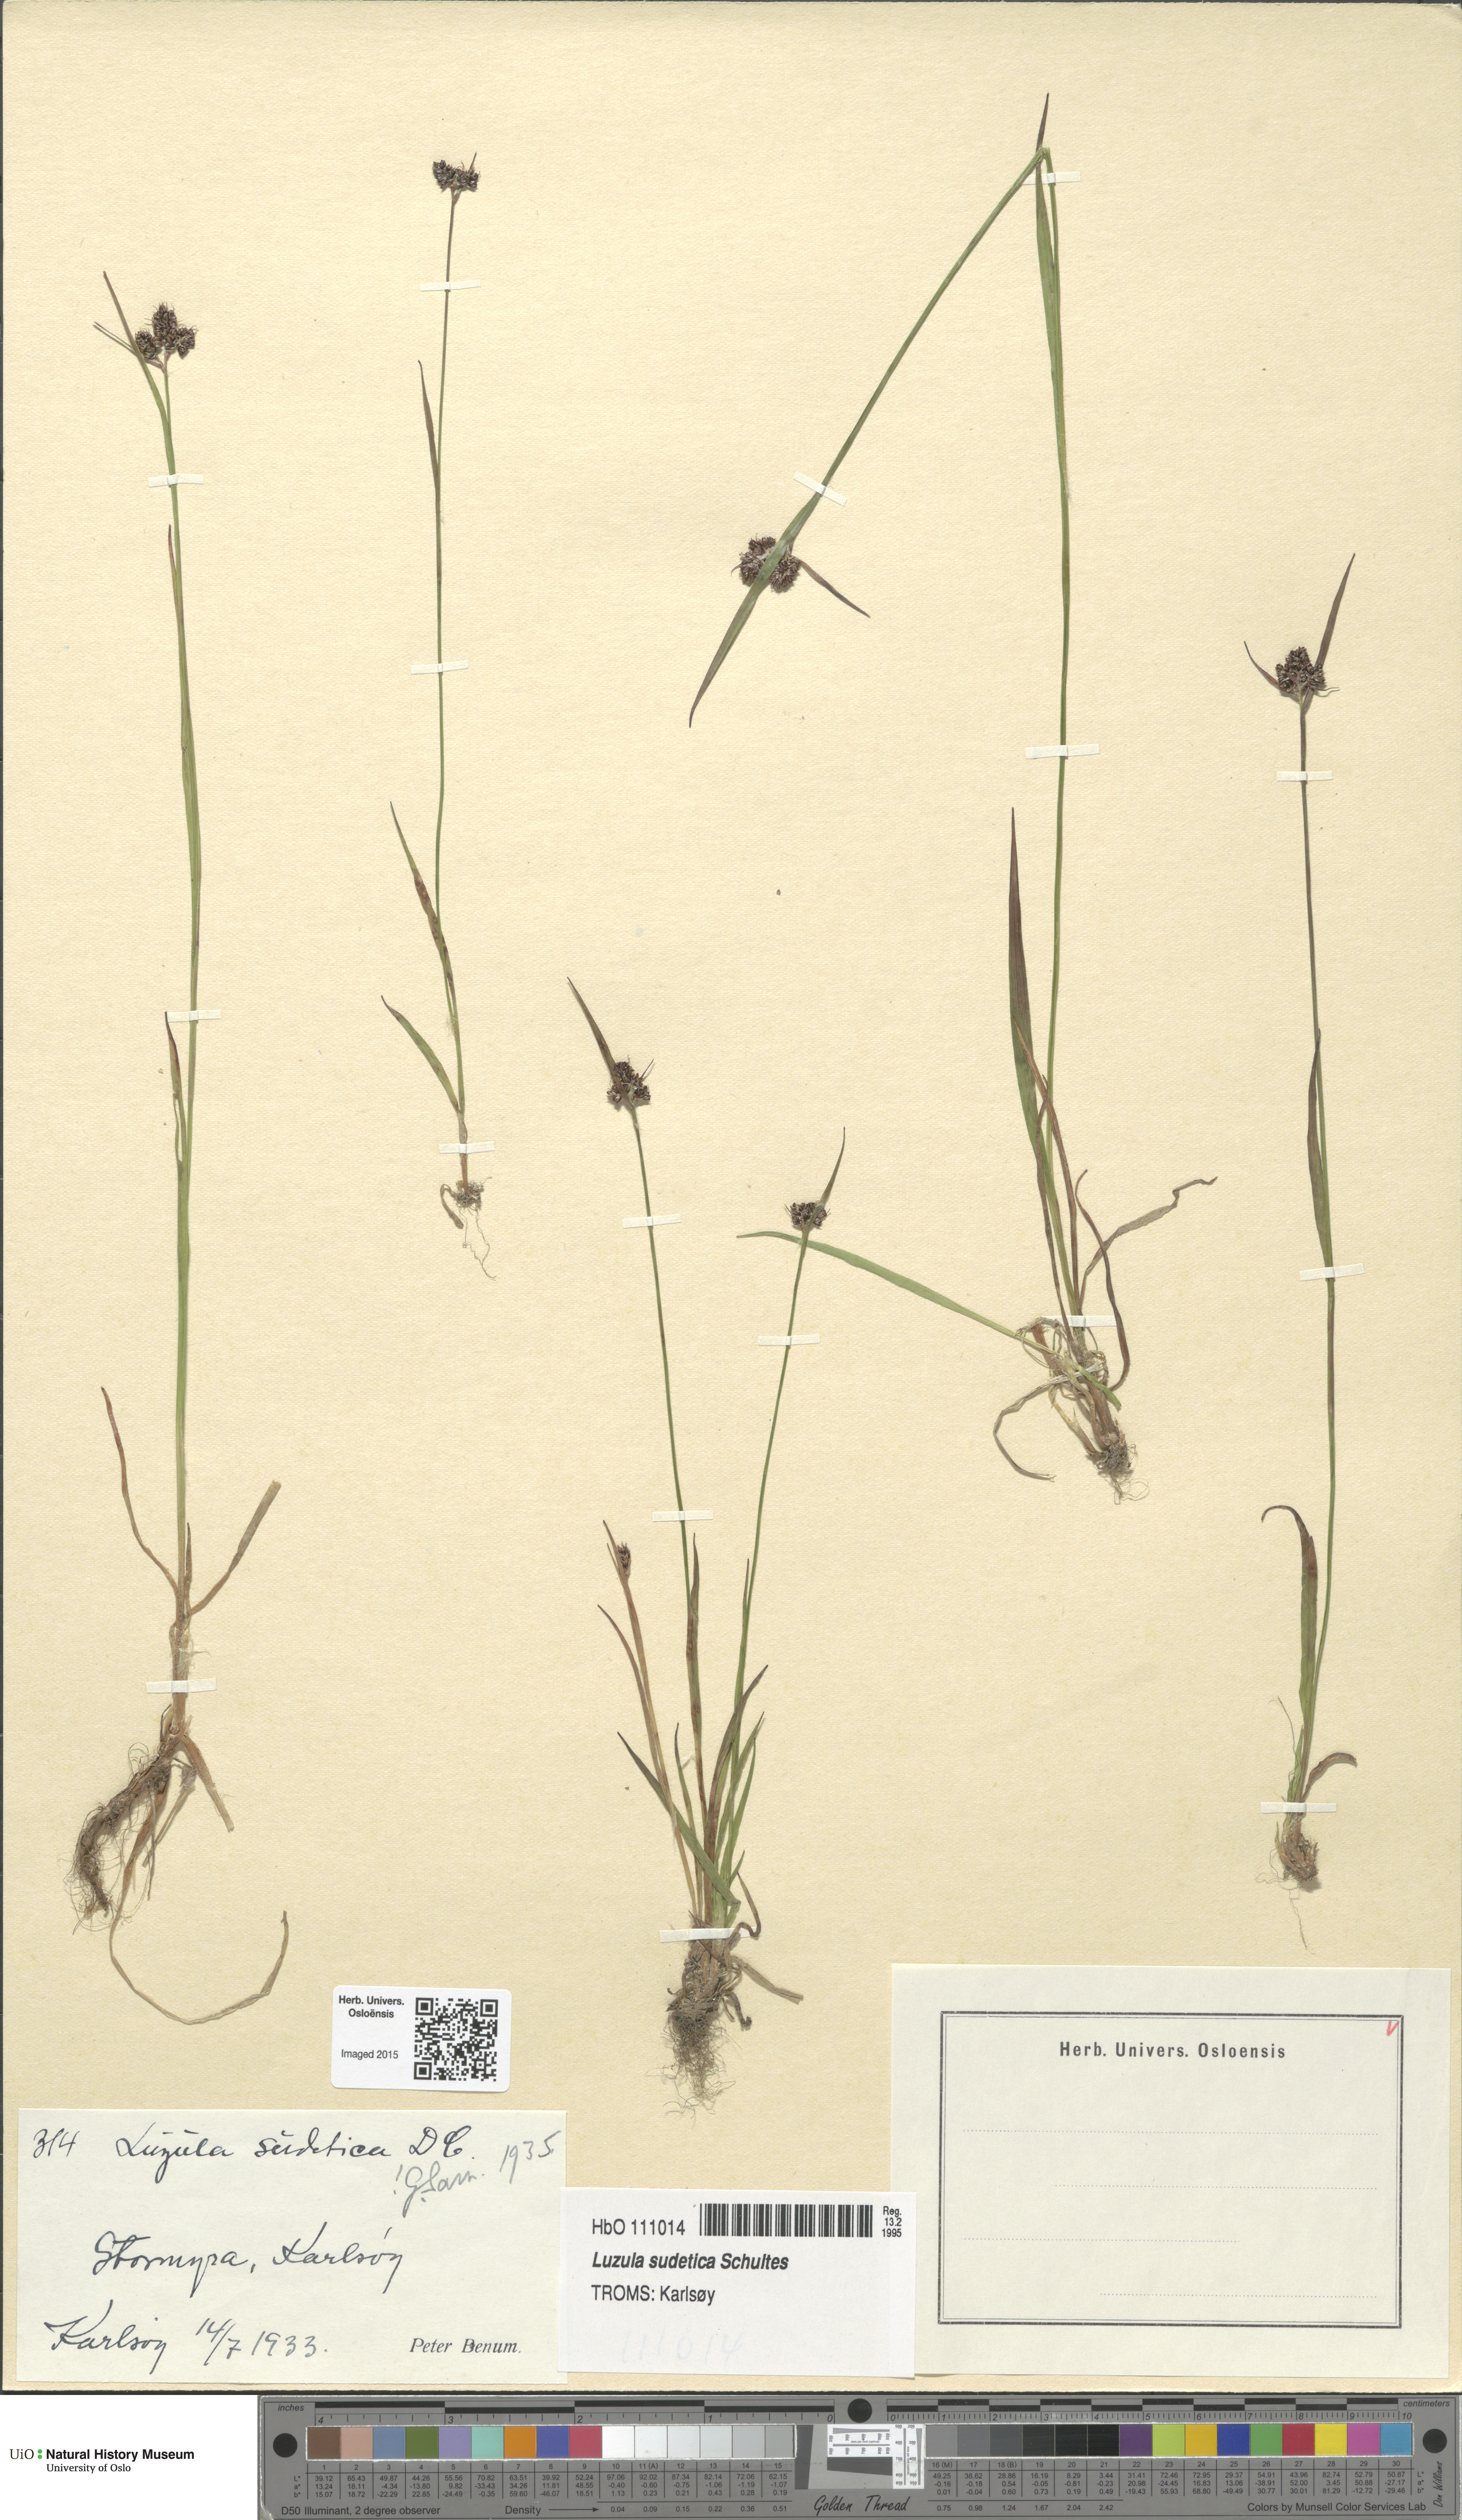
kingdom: Plantae
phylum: Tracheophyta
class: Liliopsida
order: Poales
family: Juncaceae
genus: Luzula
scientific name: Luzula sudetica
